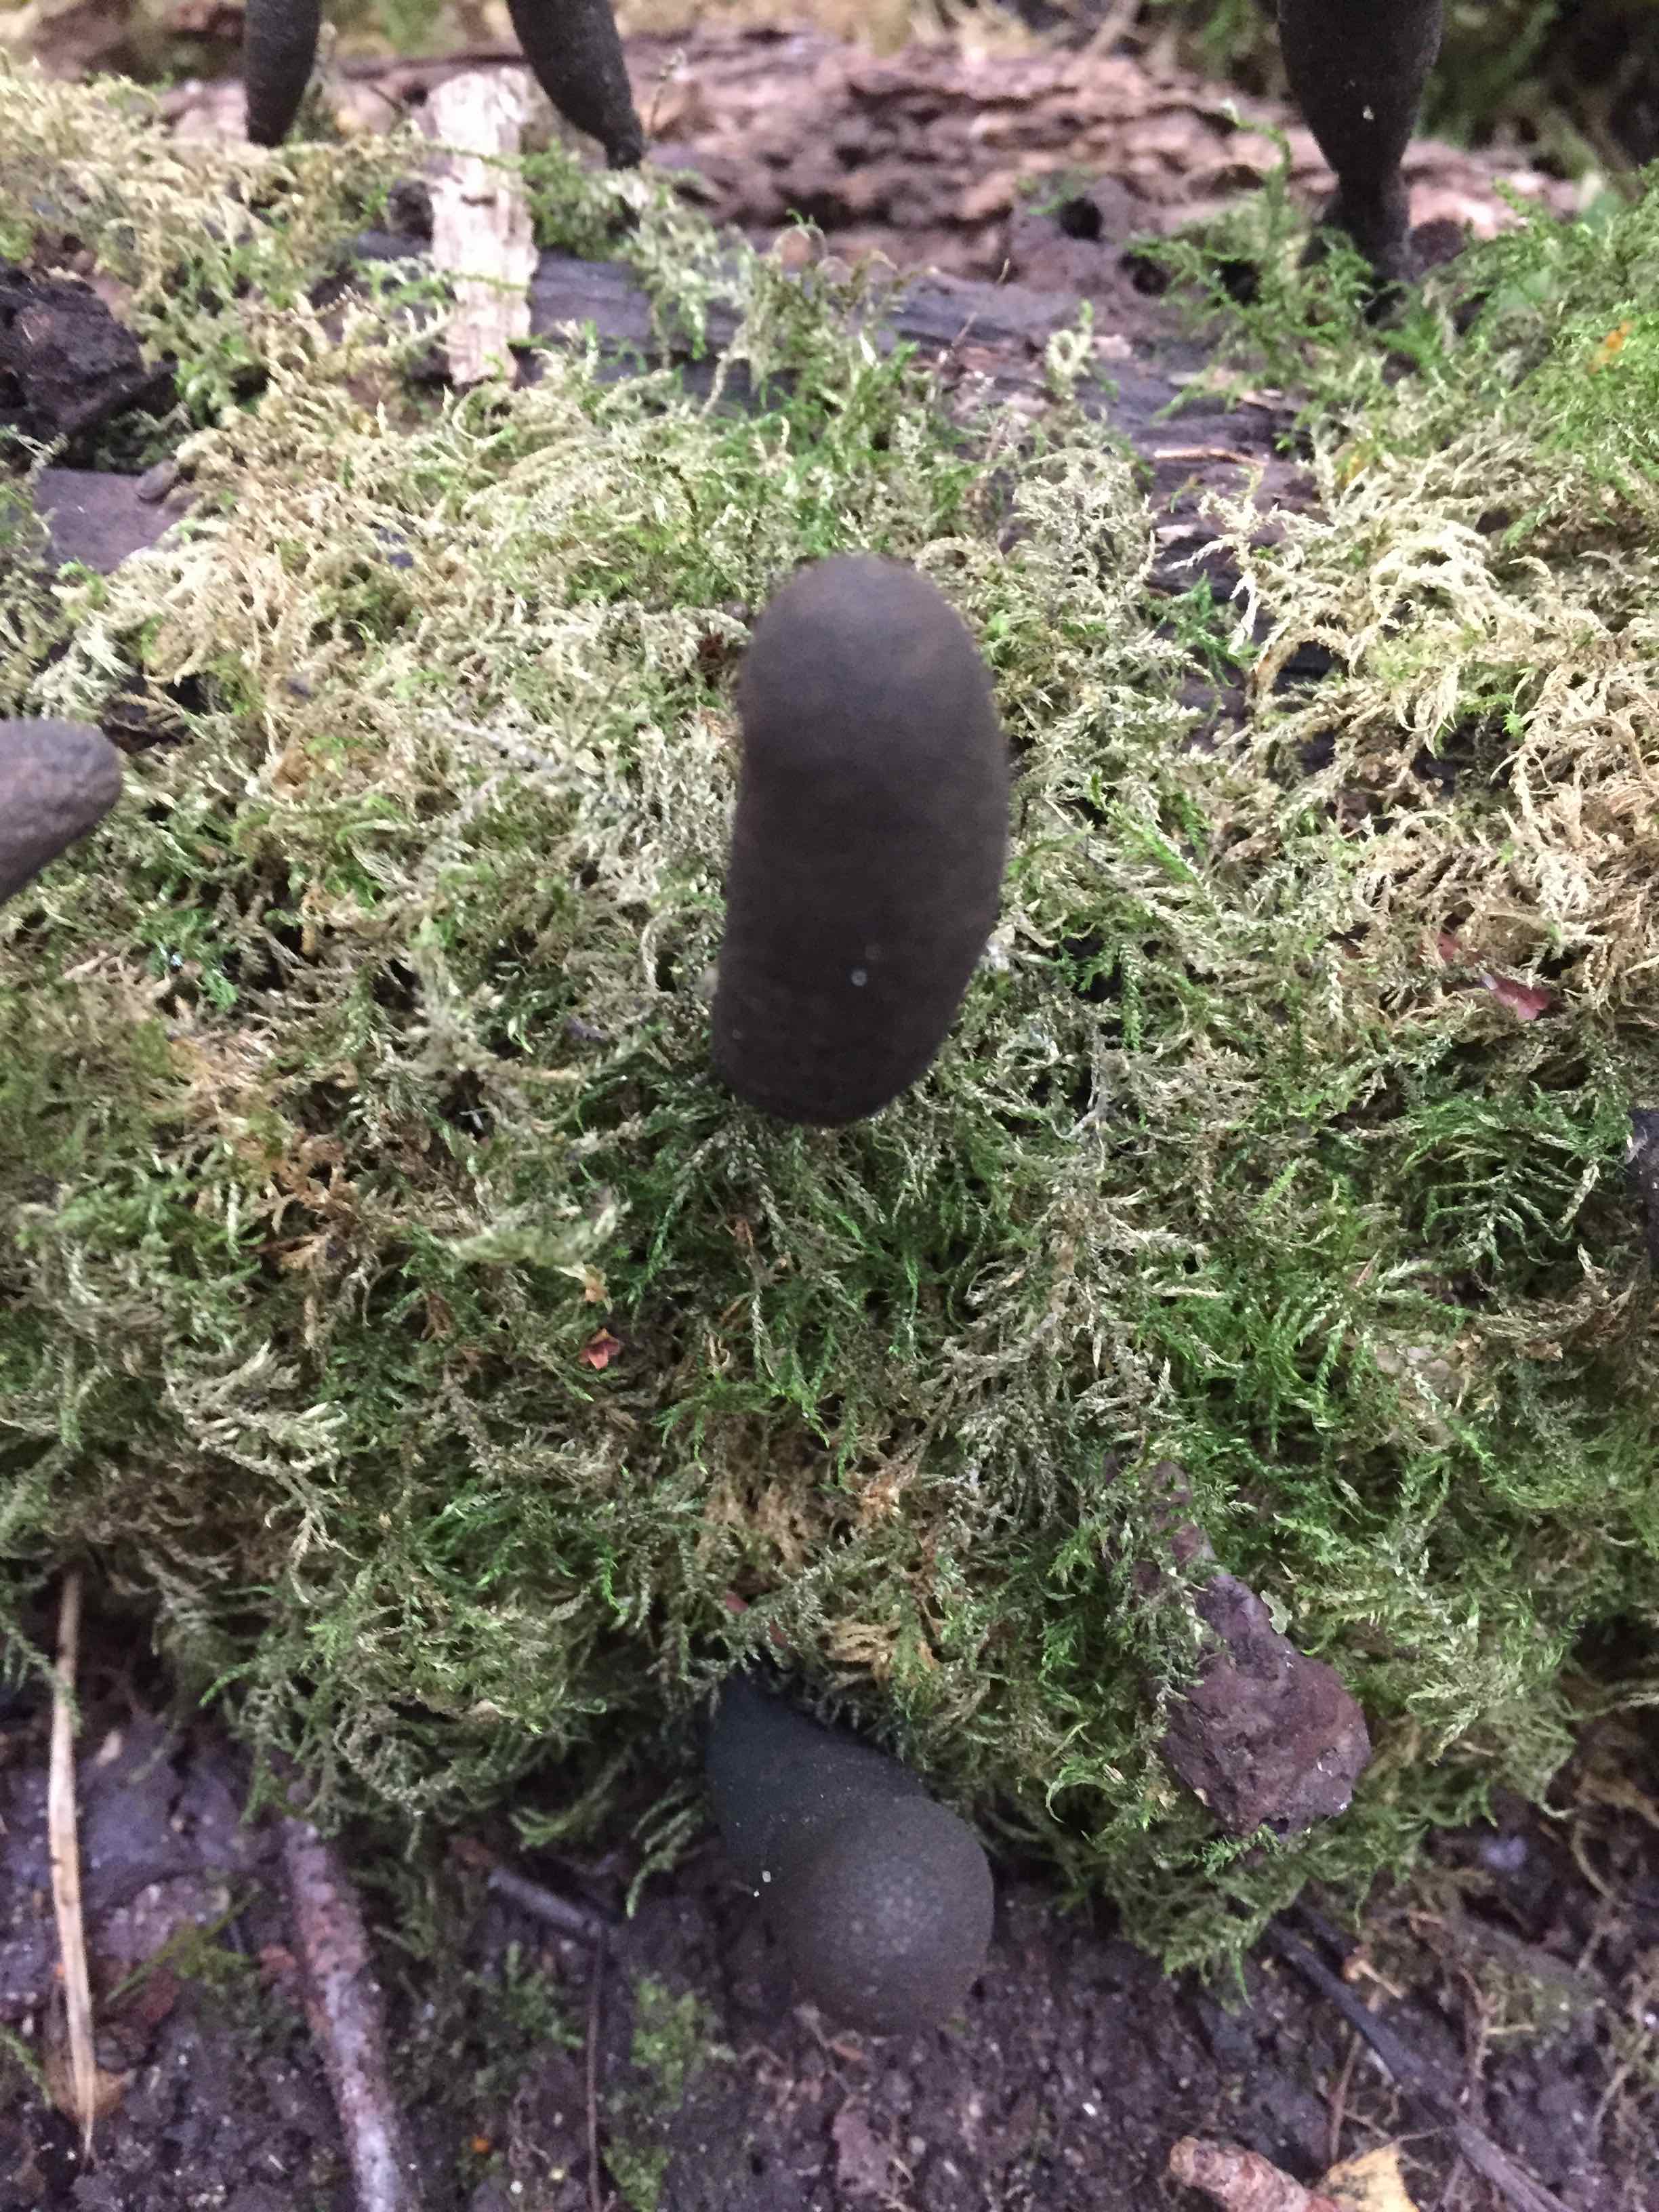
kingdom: Fungi
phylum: Ascomycota
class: Sordariomycetes
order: Xylariales
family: Xylariaceae
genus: Xylaria
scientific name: Xylaria polymorpha
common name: kølle-stødsvamp
